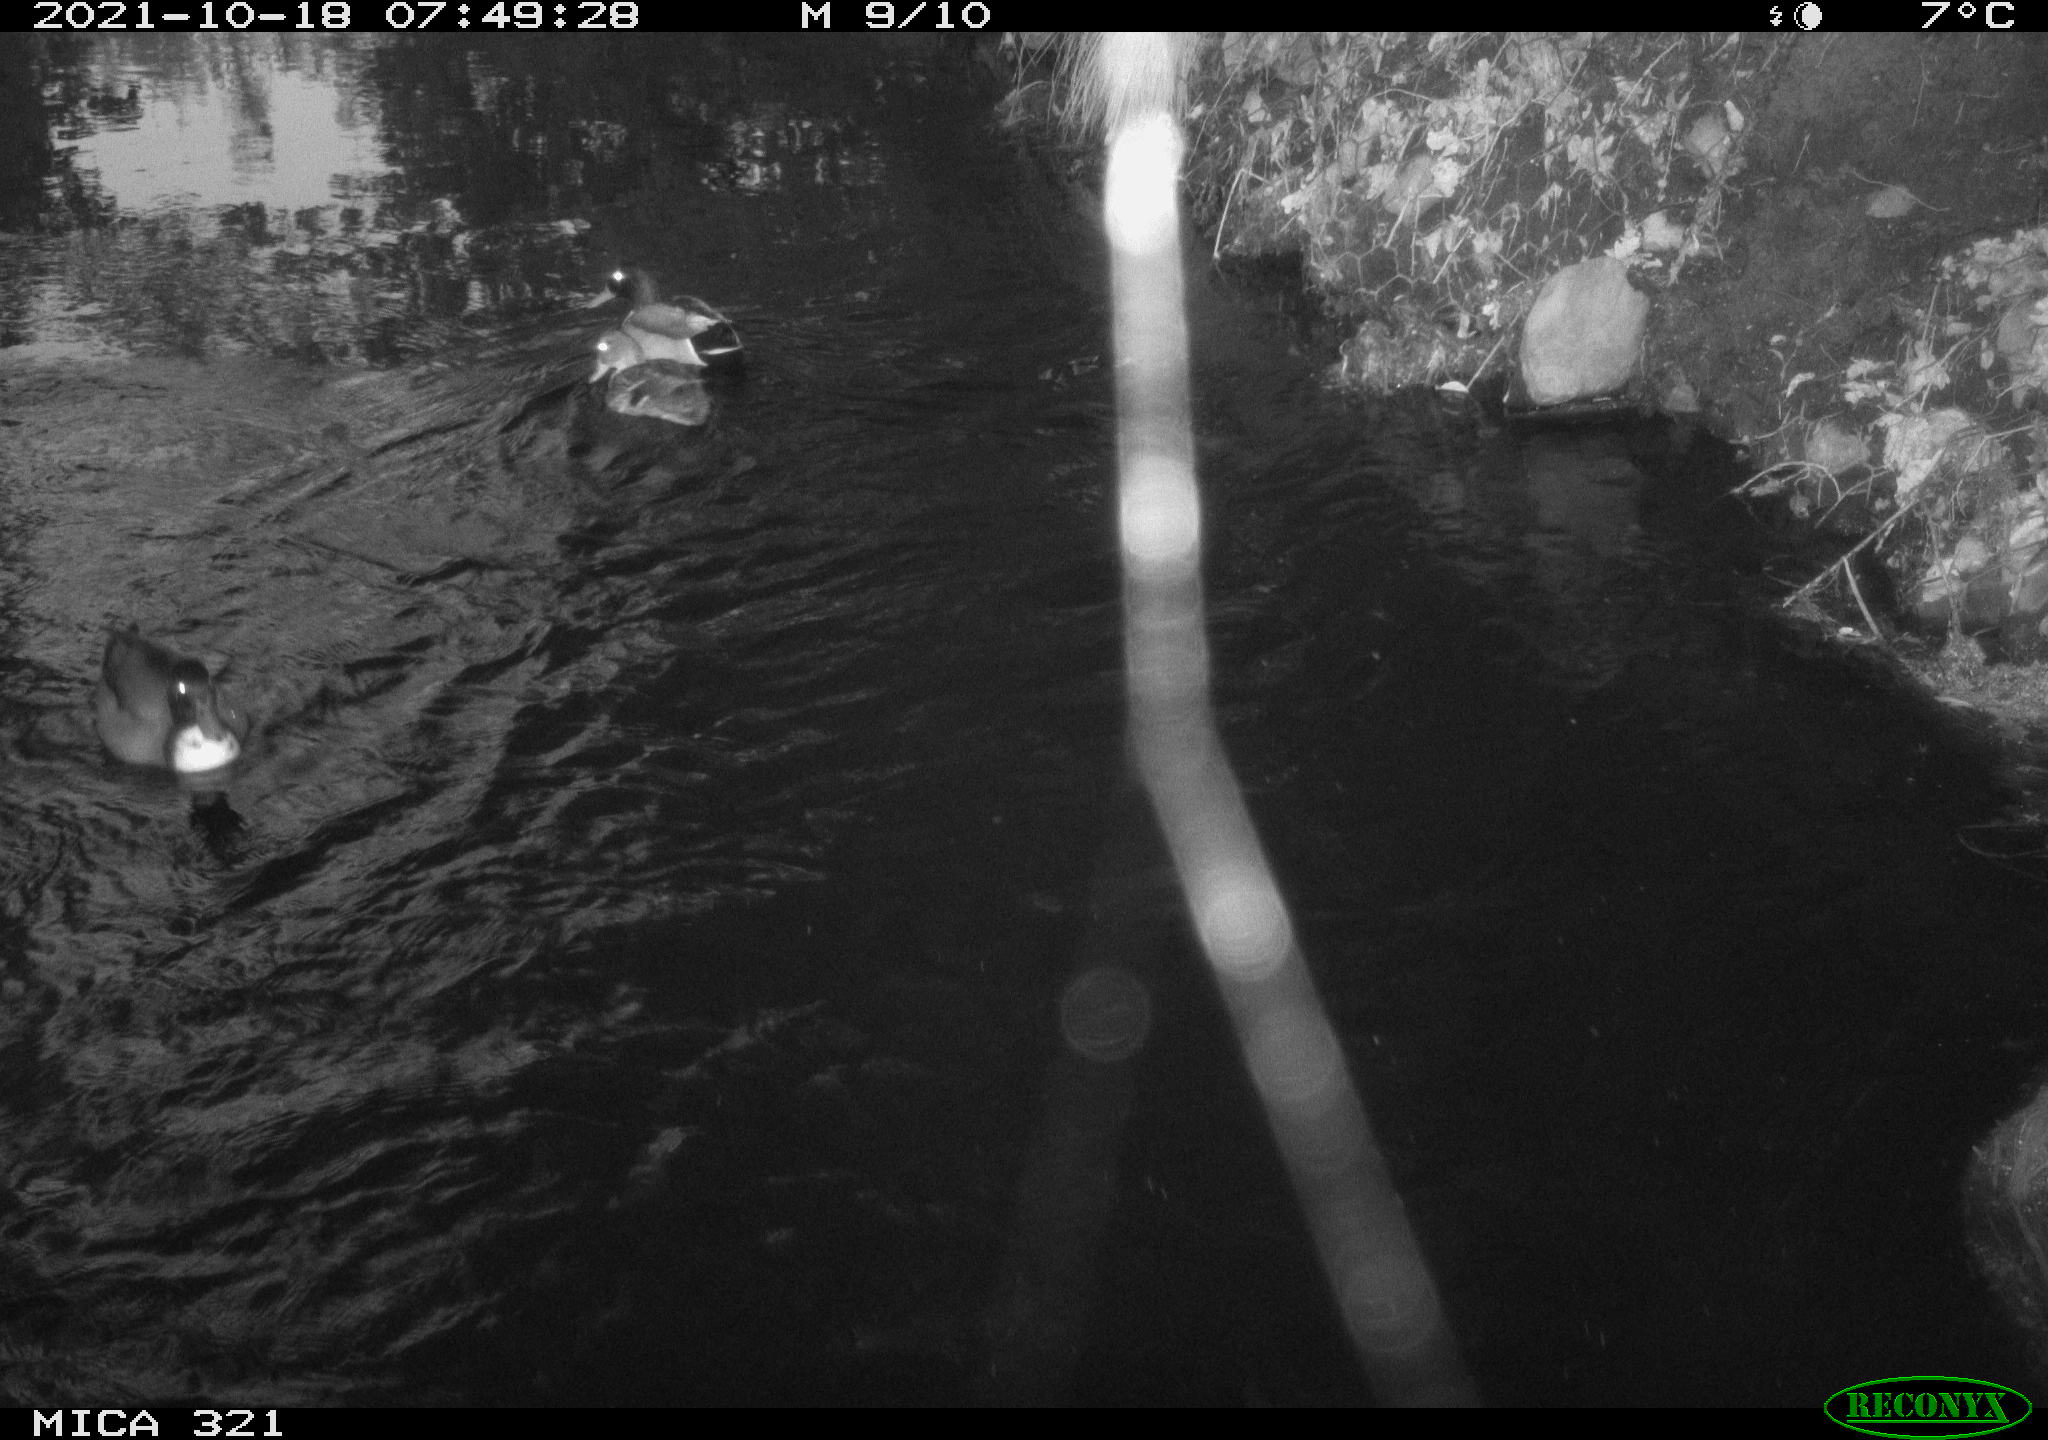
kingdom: Animalia
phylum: Chordata
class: Aves
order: Anseriformes
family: Anatidae
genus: Anas
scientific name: Anas platyrhynchos
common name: Mallard
